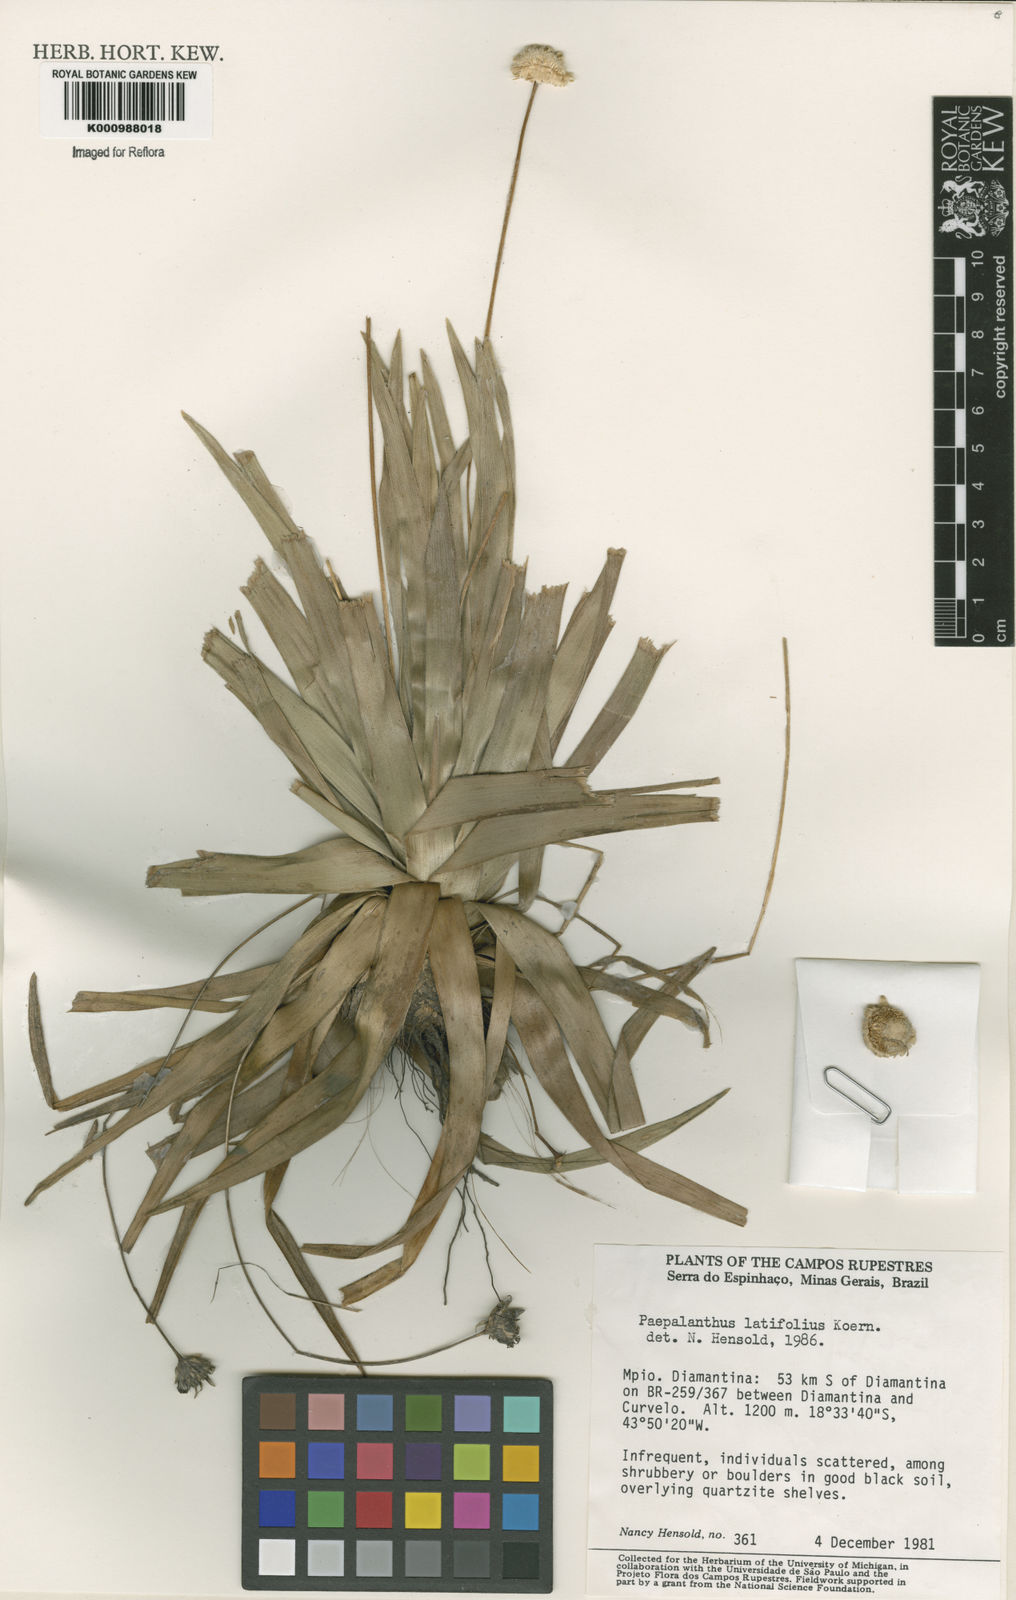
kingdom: Plantae
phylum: Tracheophyta
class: Liliopsida
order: Poales
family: Eriocaulaceae
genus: Paepalanthus
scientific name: Paepalanthus
